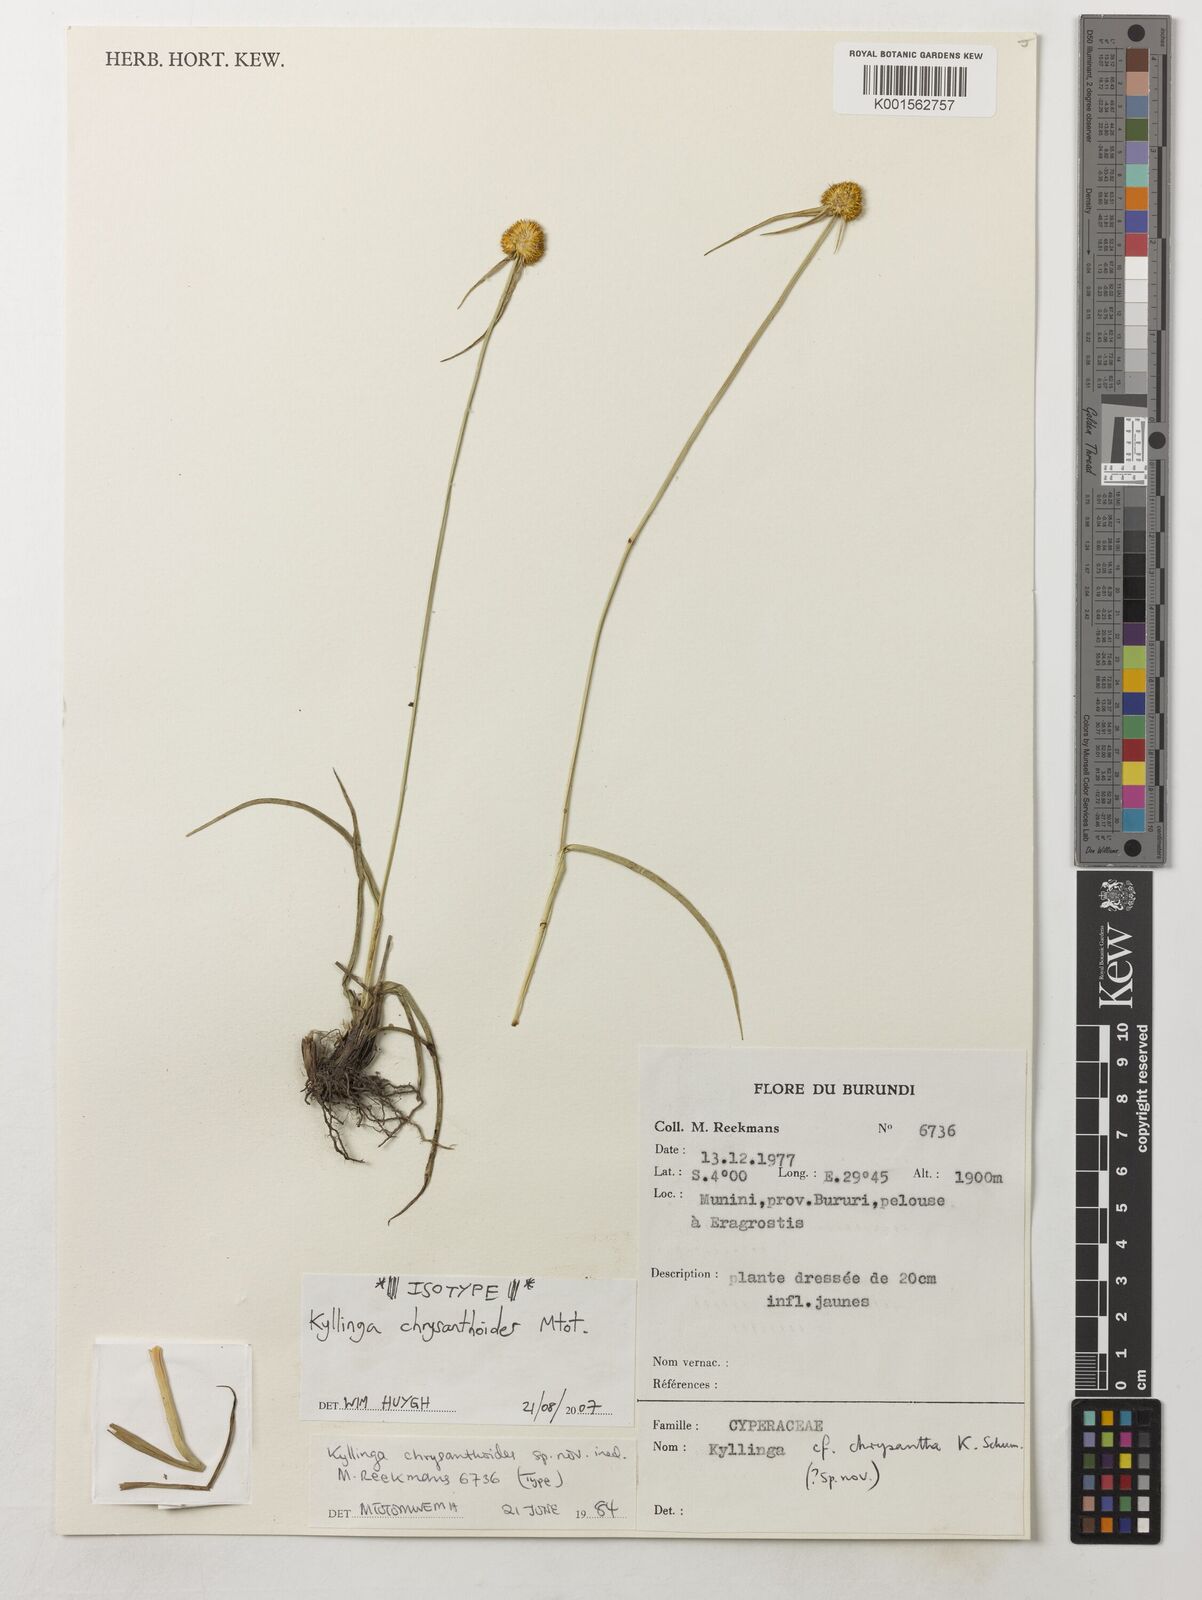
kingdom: Plantae
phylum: Tracheophyta
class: Liliopsida
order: Poales
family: Cyperaceae
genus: Cyperus
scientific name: Cyperus
